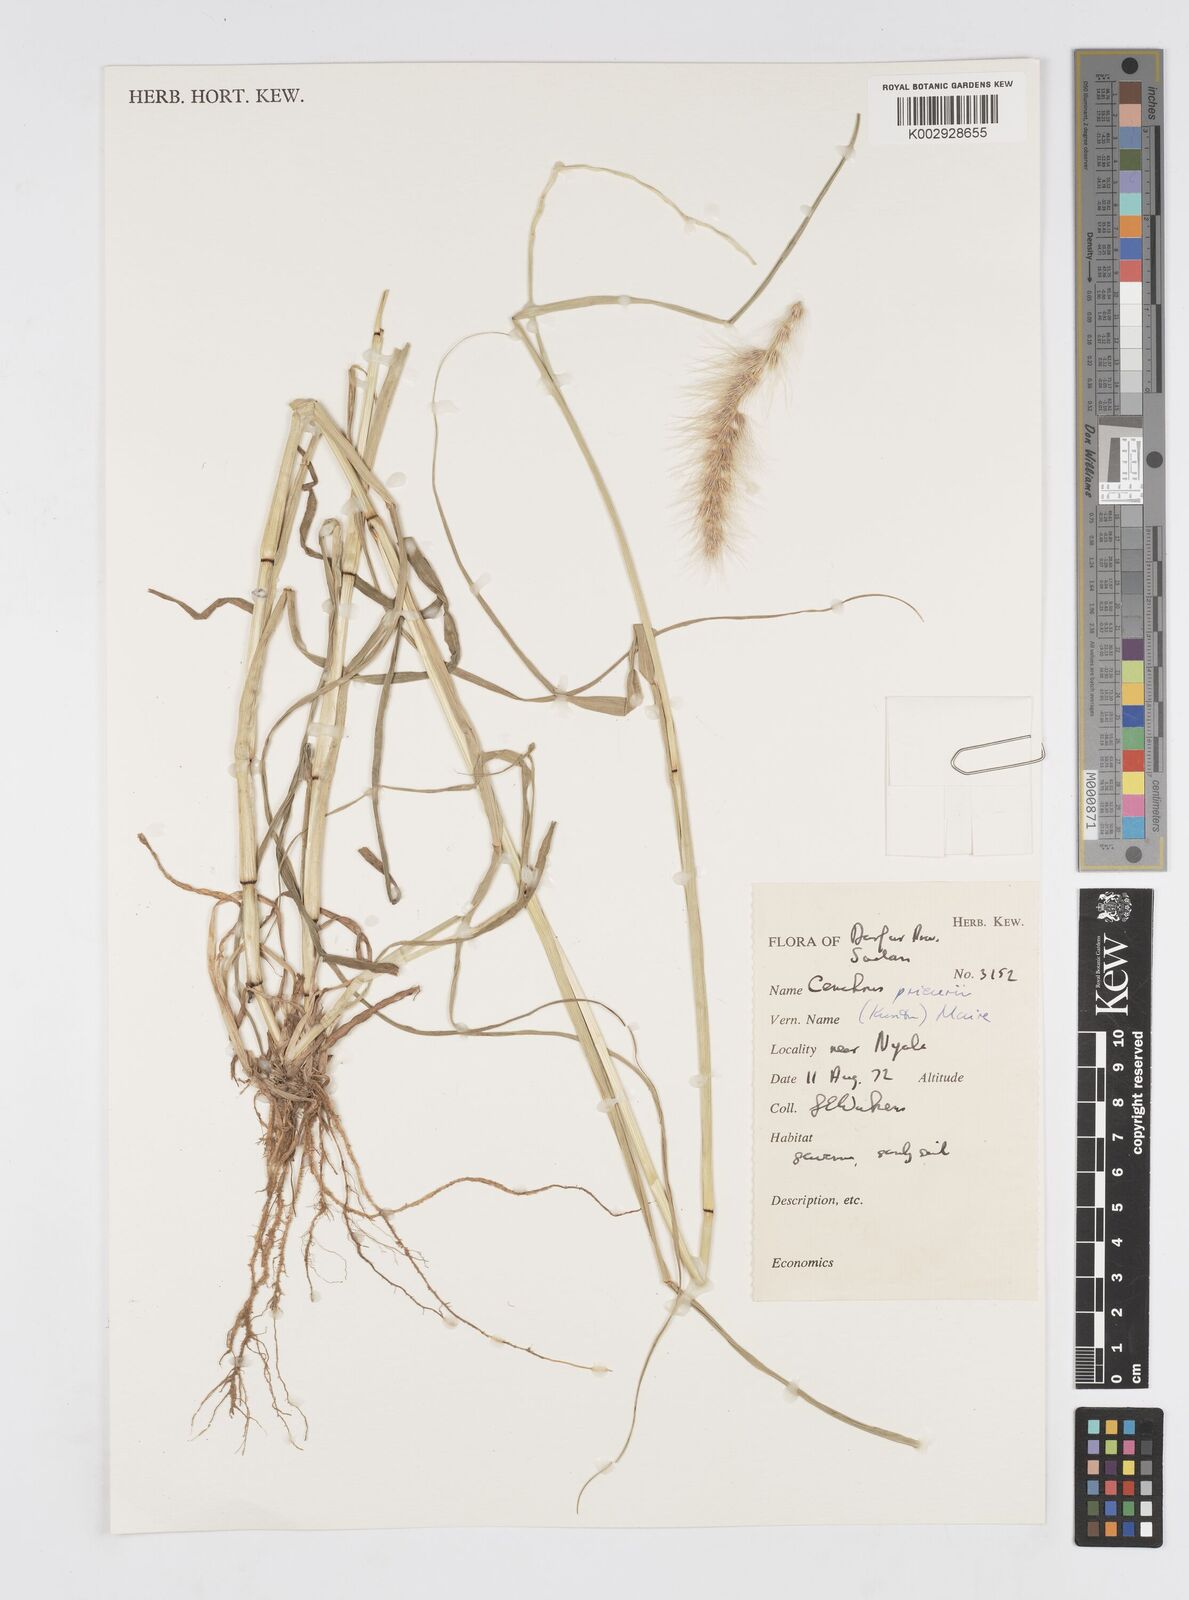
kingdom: Plantae
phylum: Tracheophyta
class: Liliopsida
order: Poales
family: Poaceae
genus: Cenchrus
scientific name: Cenchrus prieurii
